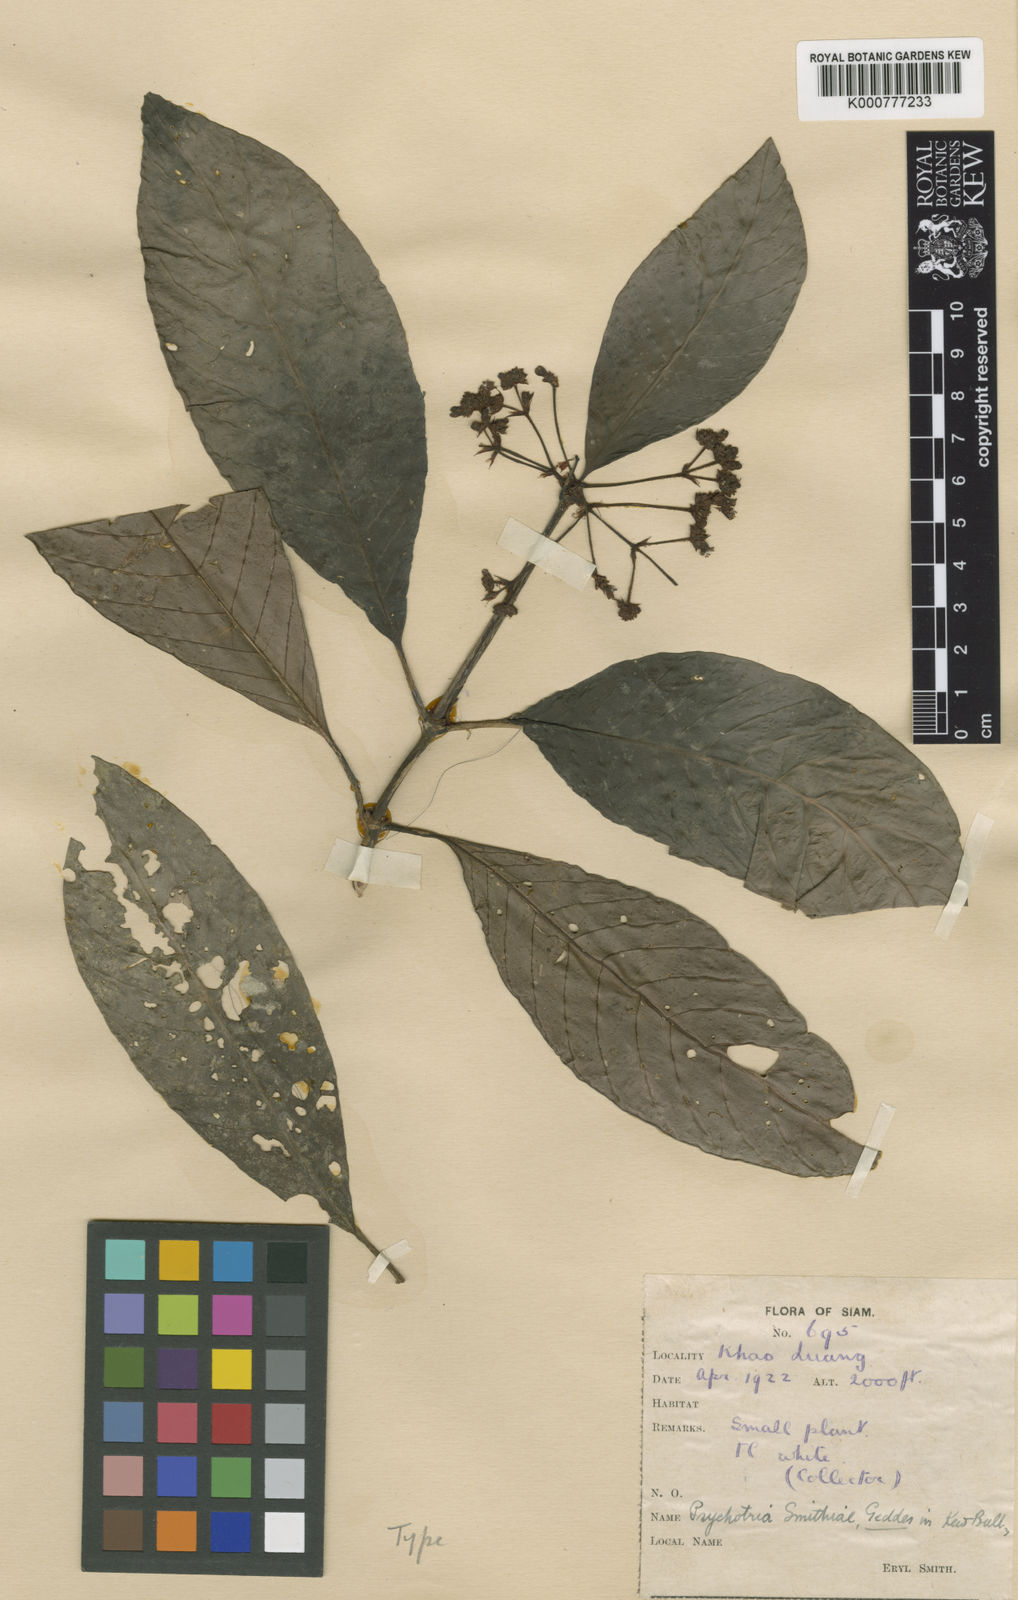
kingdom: Plantae
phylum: Tracheophyta
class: Magnoliopsida
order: Gentianales
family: Rubiaceae
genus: Psychotria
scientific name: Psychotria smithiae
